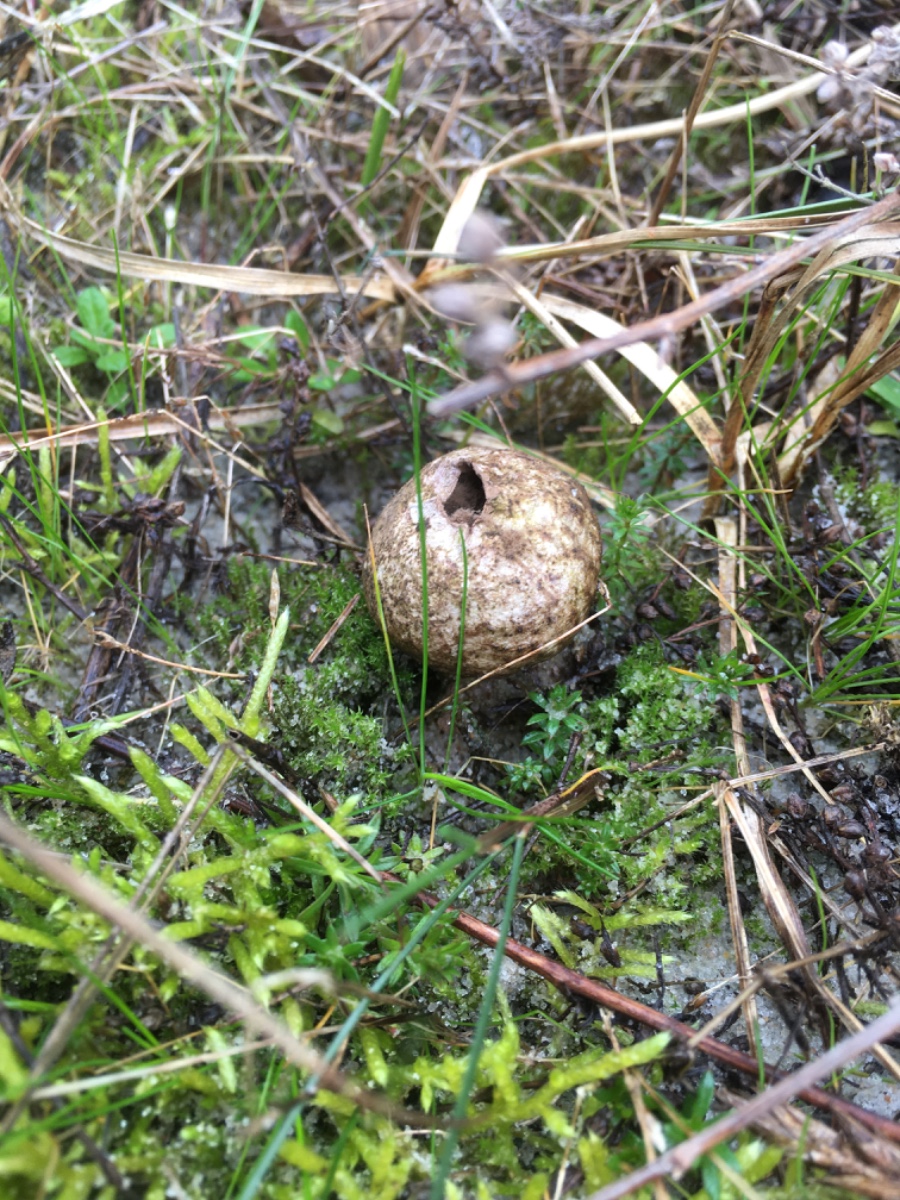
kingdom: Fungi
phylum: Basidiomycota
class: Agaricomycetes
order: Agaricales
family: Agaricaceae
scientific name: Agaricaceae
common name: champignonfamilien
